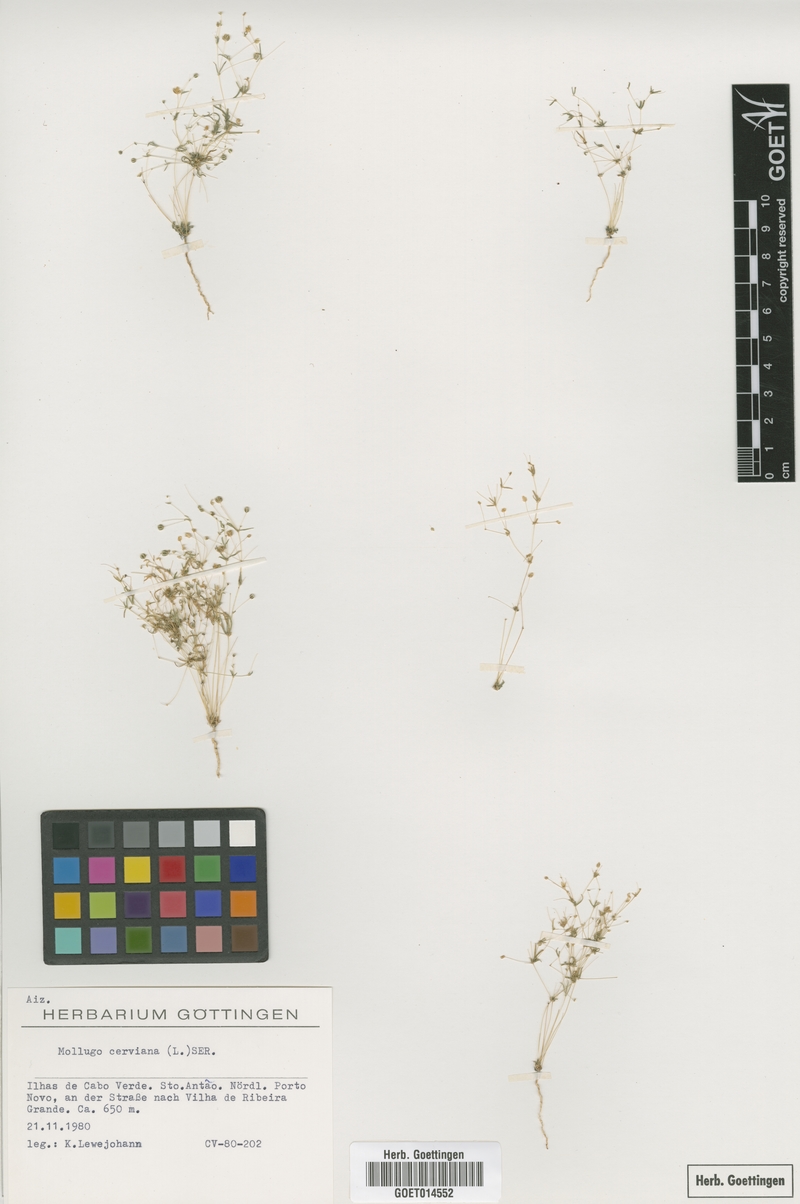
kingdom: Plantae
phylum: Tracheophyta
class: Magnoliopsida
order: Caryophyllales
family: Molluginaceae
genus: Hypertelis
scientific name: Hypertelis cerviana
